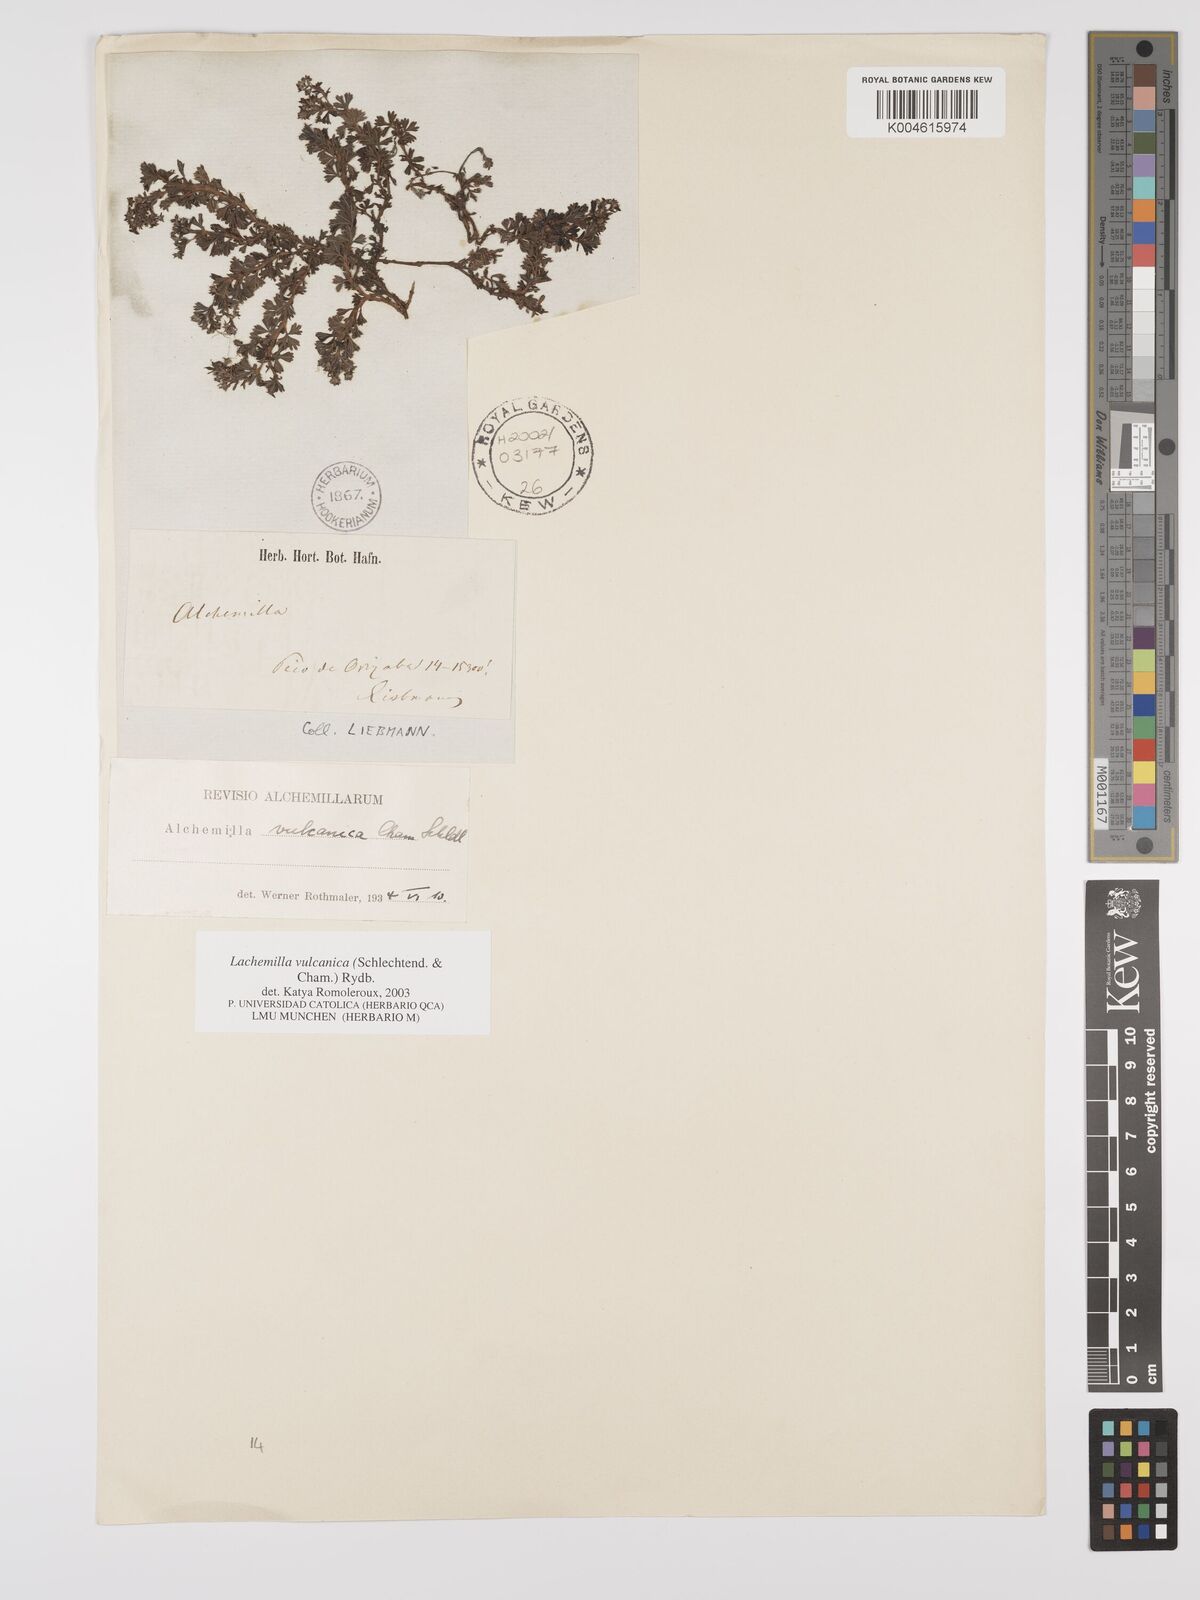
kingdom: Plantae
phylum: Tracheophyta
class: Magnoliopsida
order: Rosales
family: Rosaceae
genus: Alchemilla
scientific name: Alchemilla
